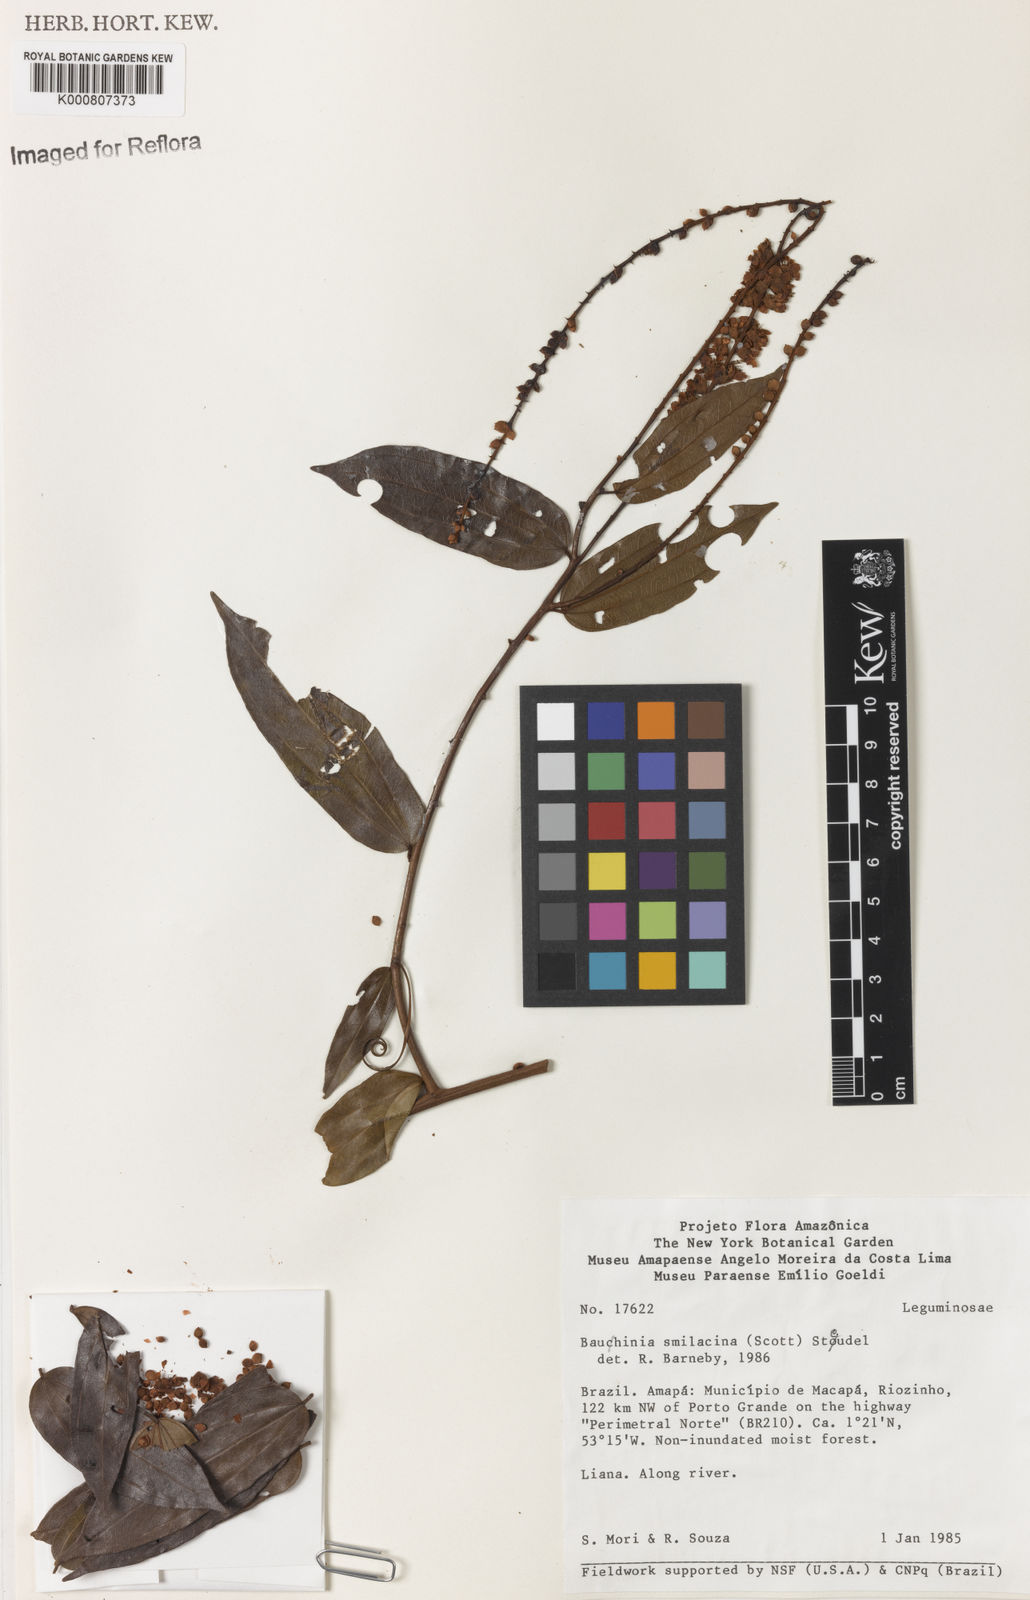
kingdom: Plantae
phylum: Tracheophyta
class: Magnoliopsida
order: Fabales
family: Fabaceae
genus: Schnella
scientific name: Schnella smilacina
